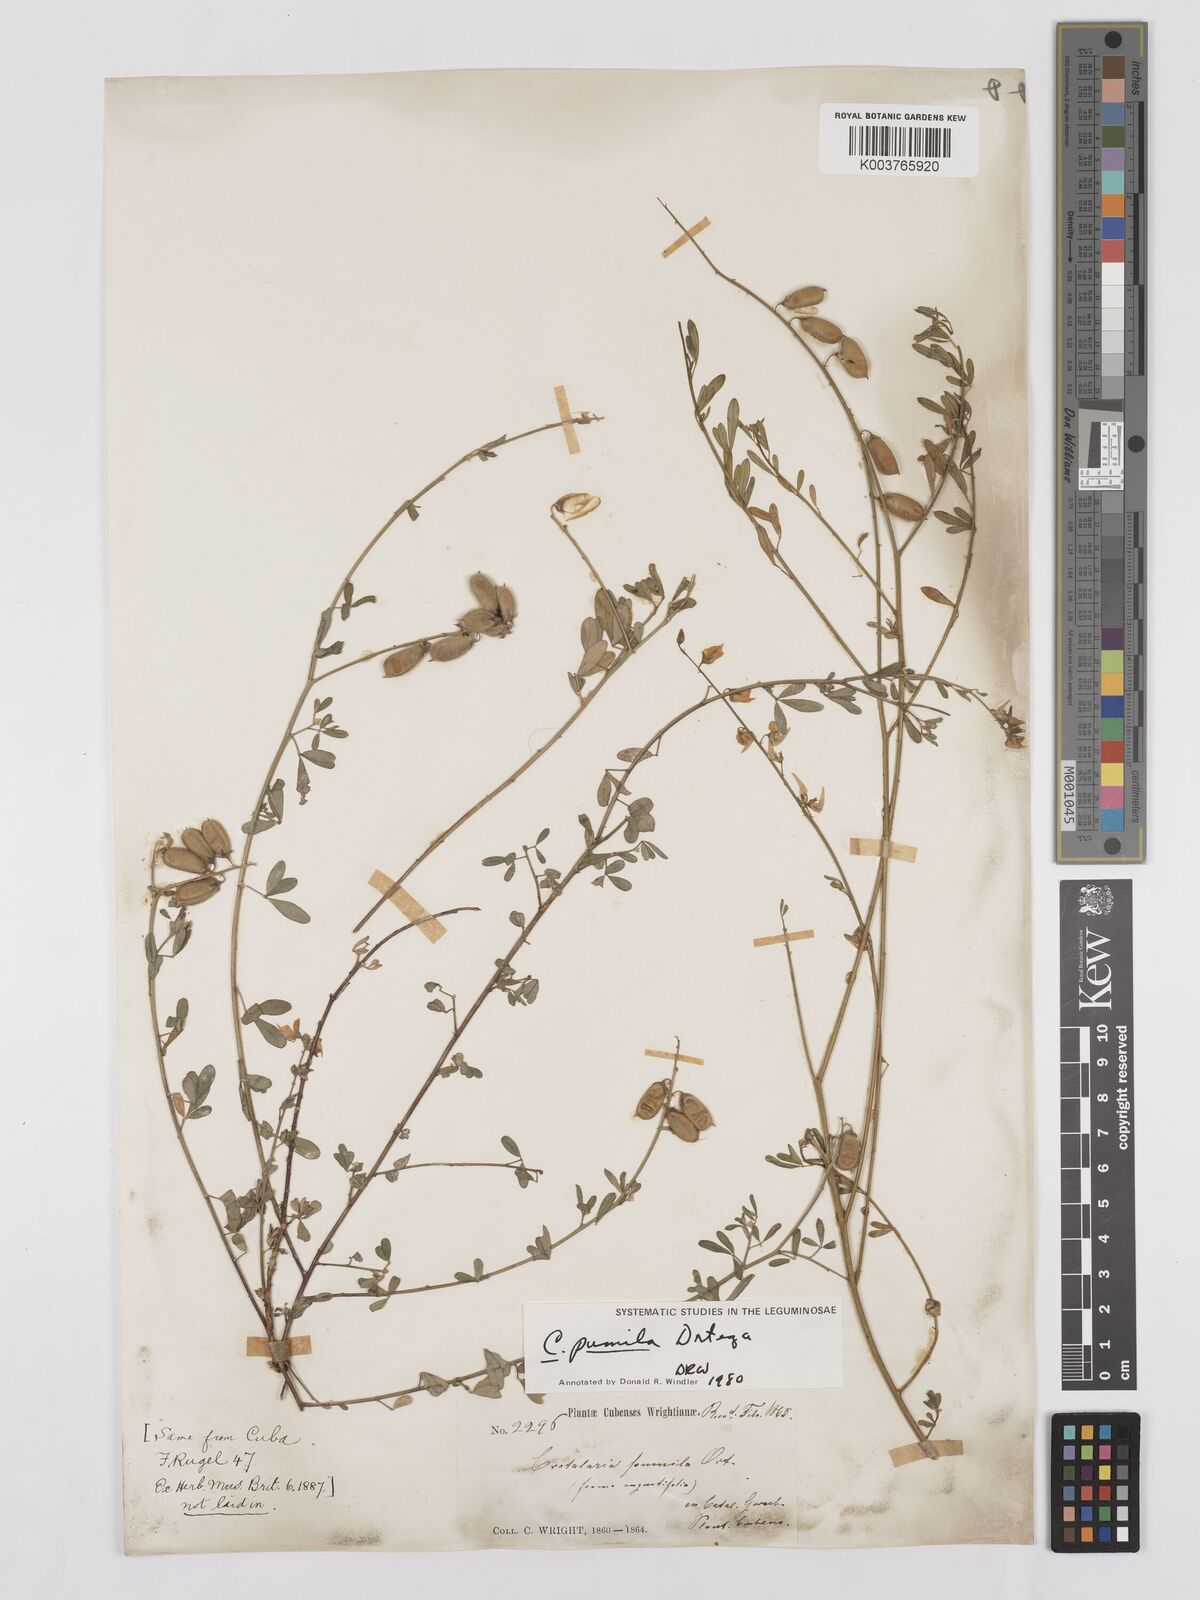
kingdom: Plantae
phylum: Tracheophyta
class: Magnoliopsida
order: Fabales
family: Fabaceae
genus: Crotalaria
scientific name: Crotalaria pumila
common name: Low rattlebox
